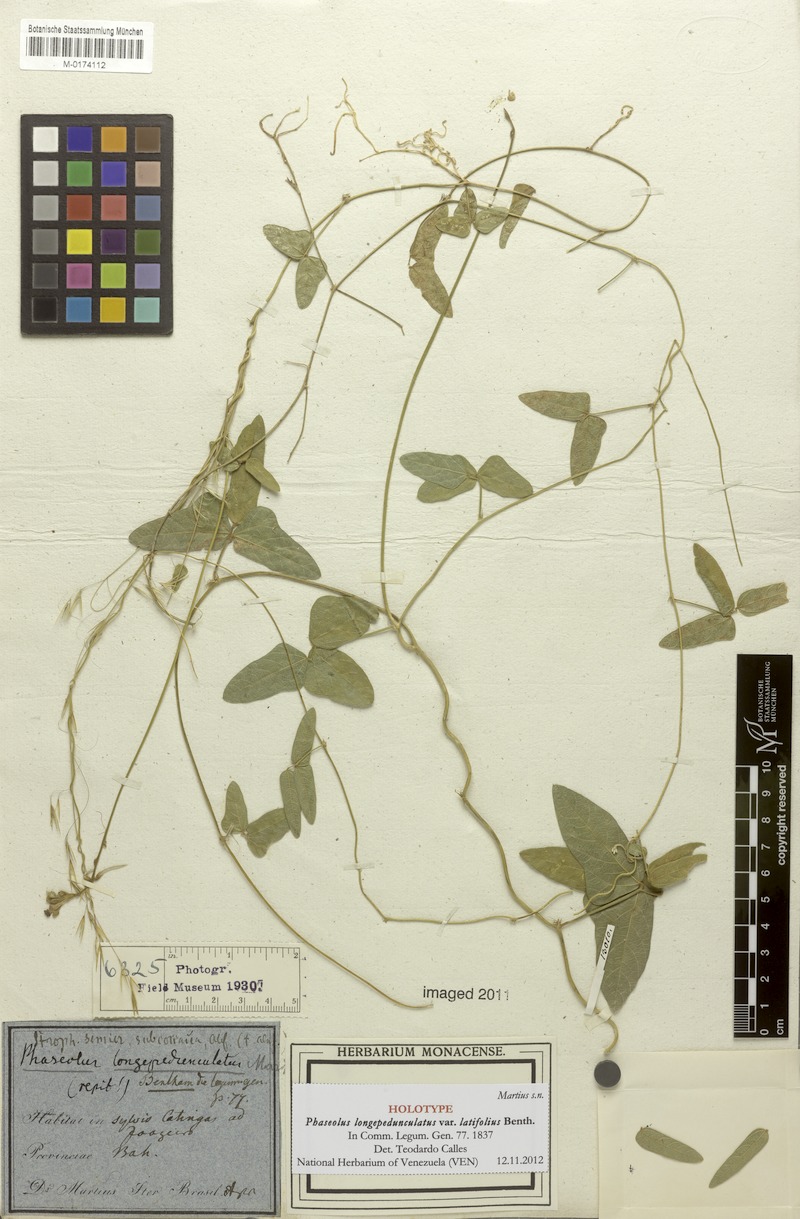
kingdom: Plantae
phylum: Tracheophyta
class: Magnoliopsida
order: Fabales
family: Fabaceae
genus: Macroptilium
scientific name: Macroptilium gracile
